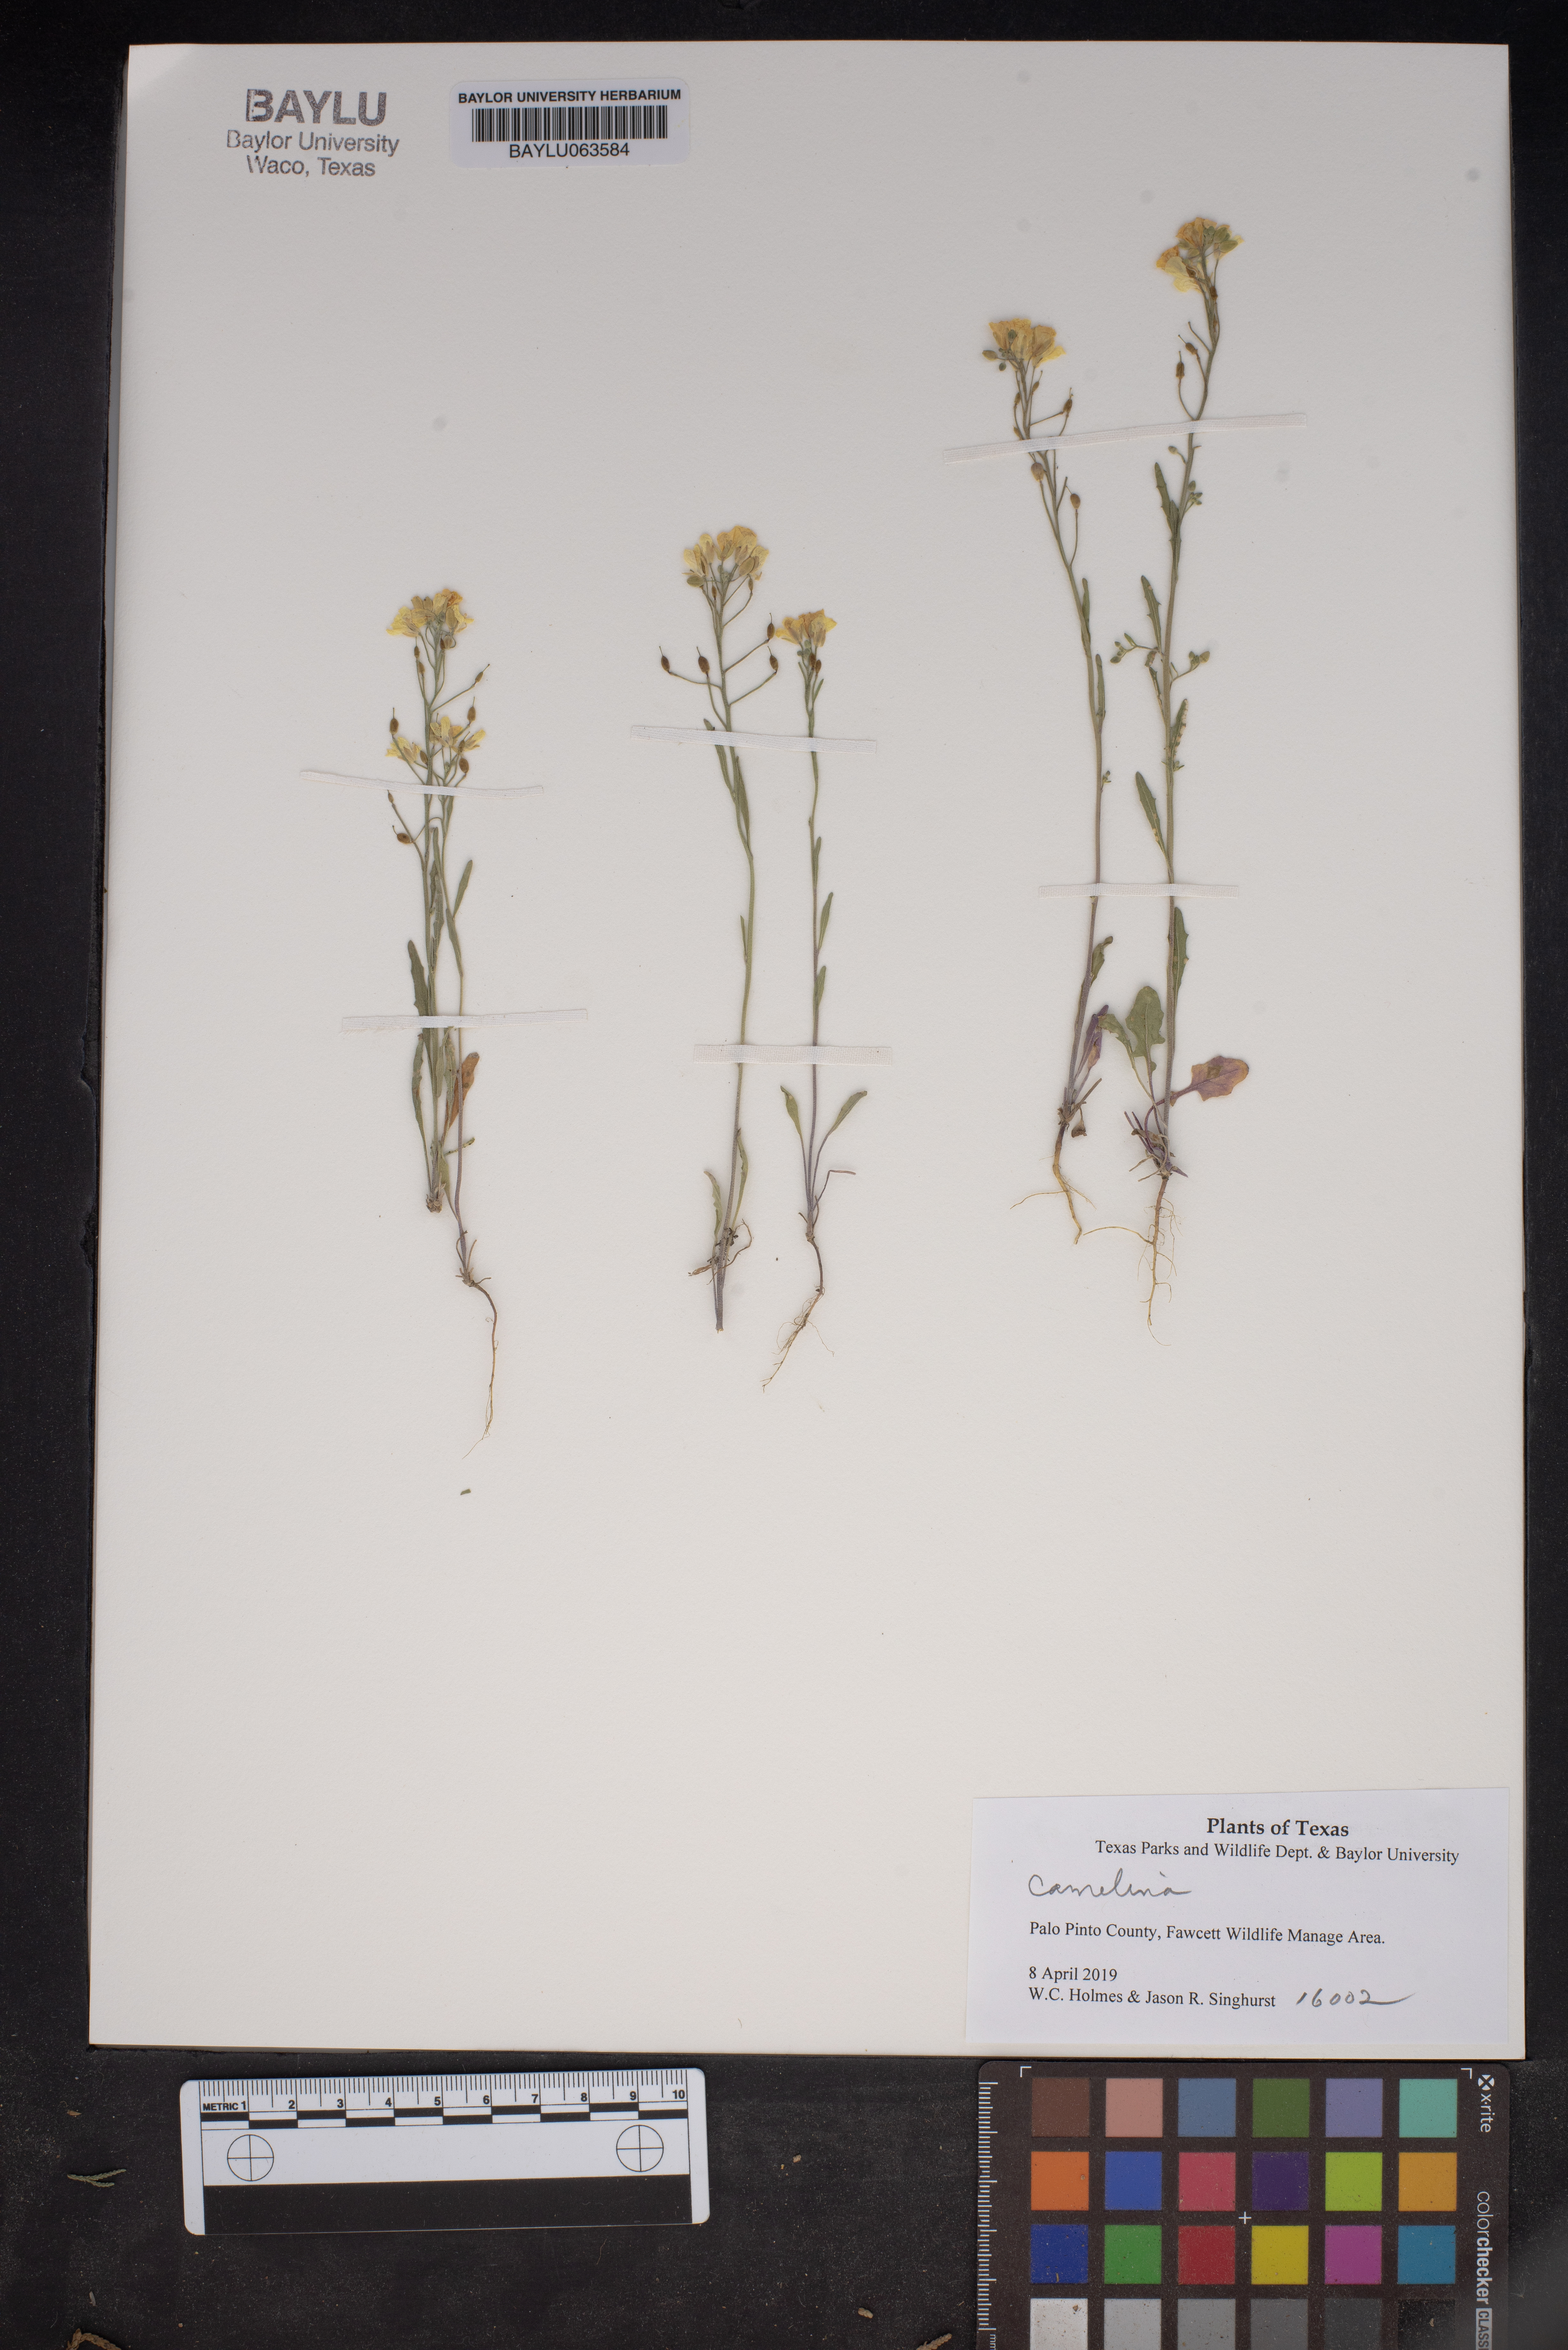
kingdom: Plantae
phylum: Tracheophyta
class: Magnoliopsida
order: Brassicales
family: Brassicaceae
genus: Camelina
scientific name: Camelina
